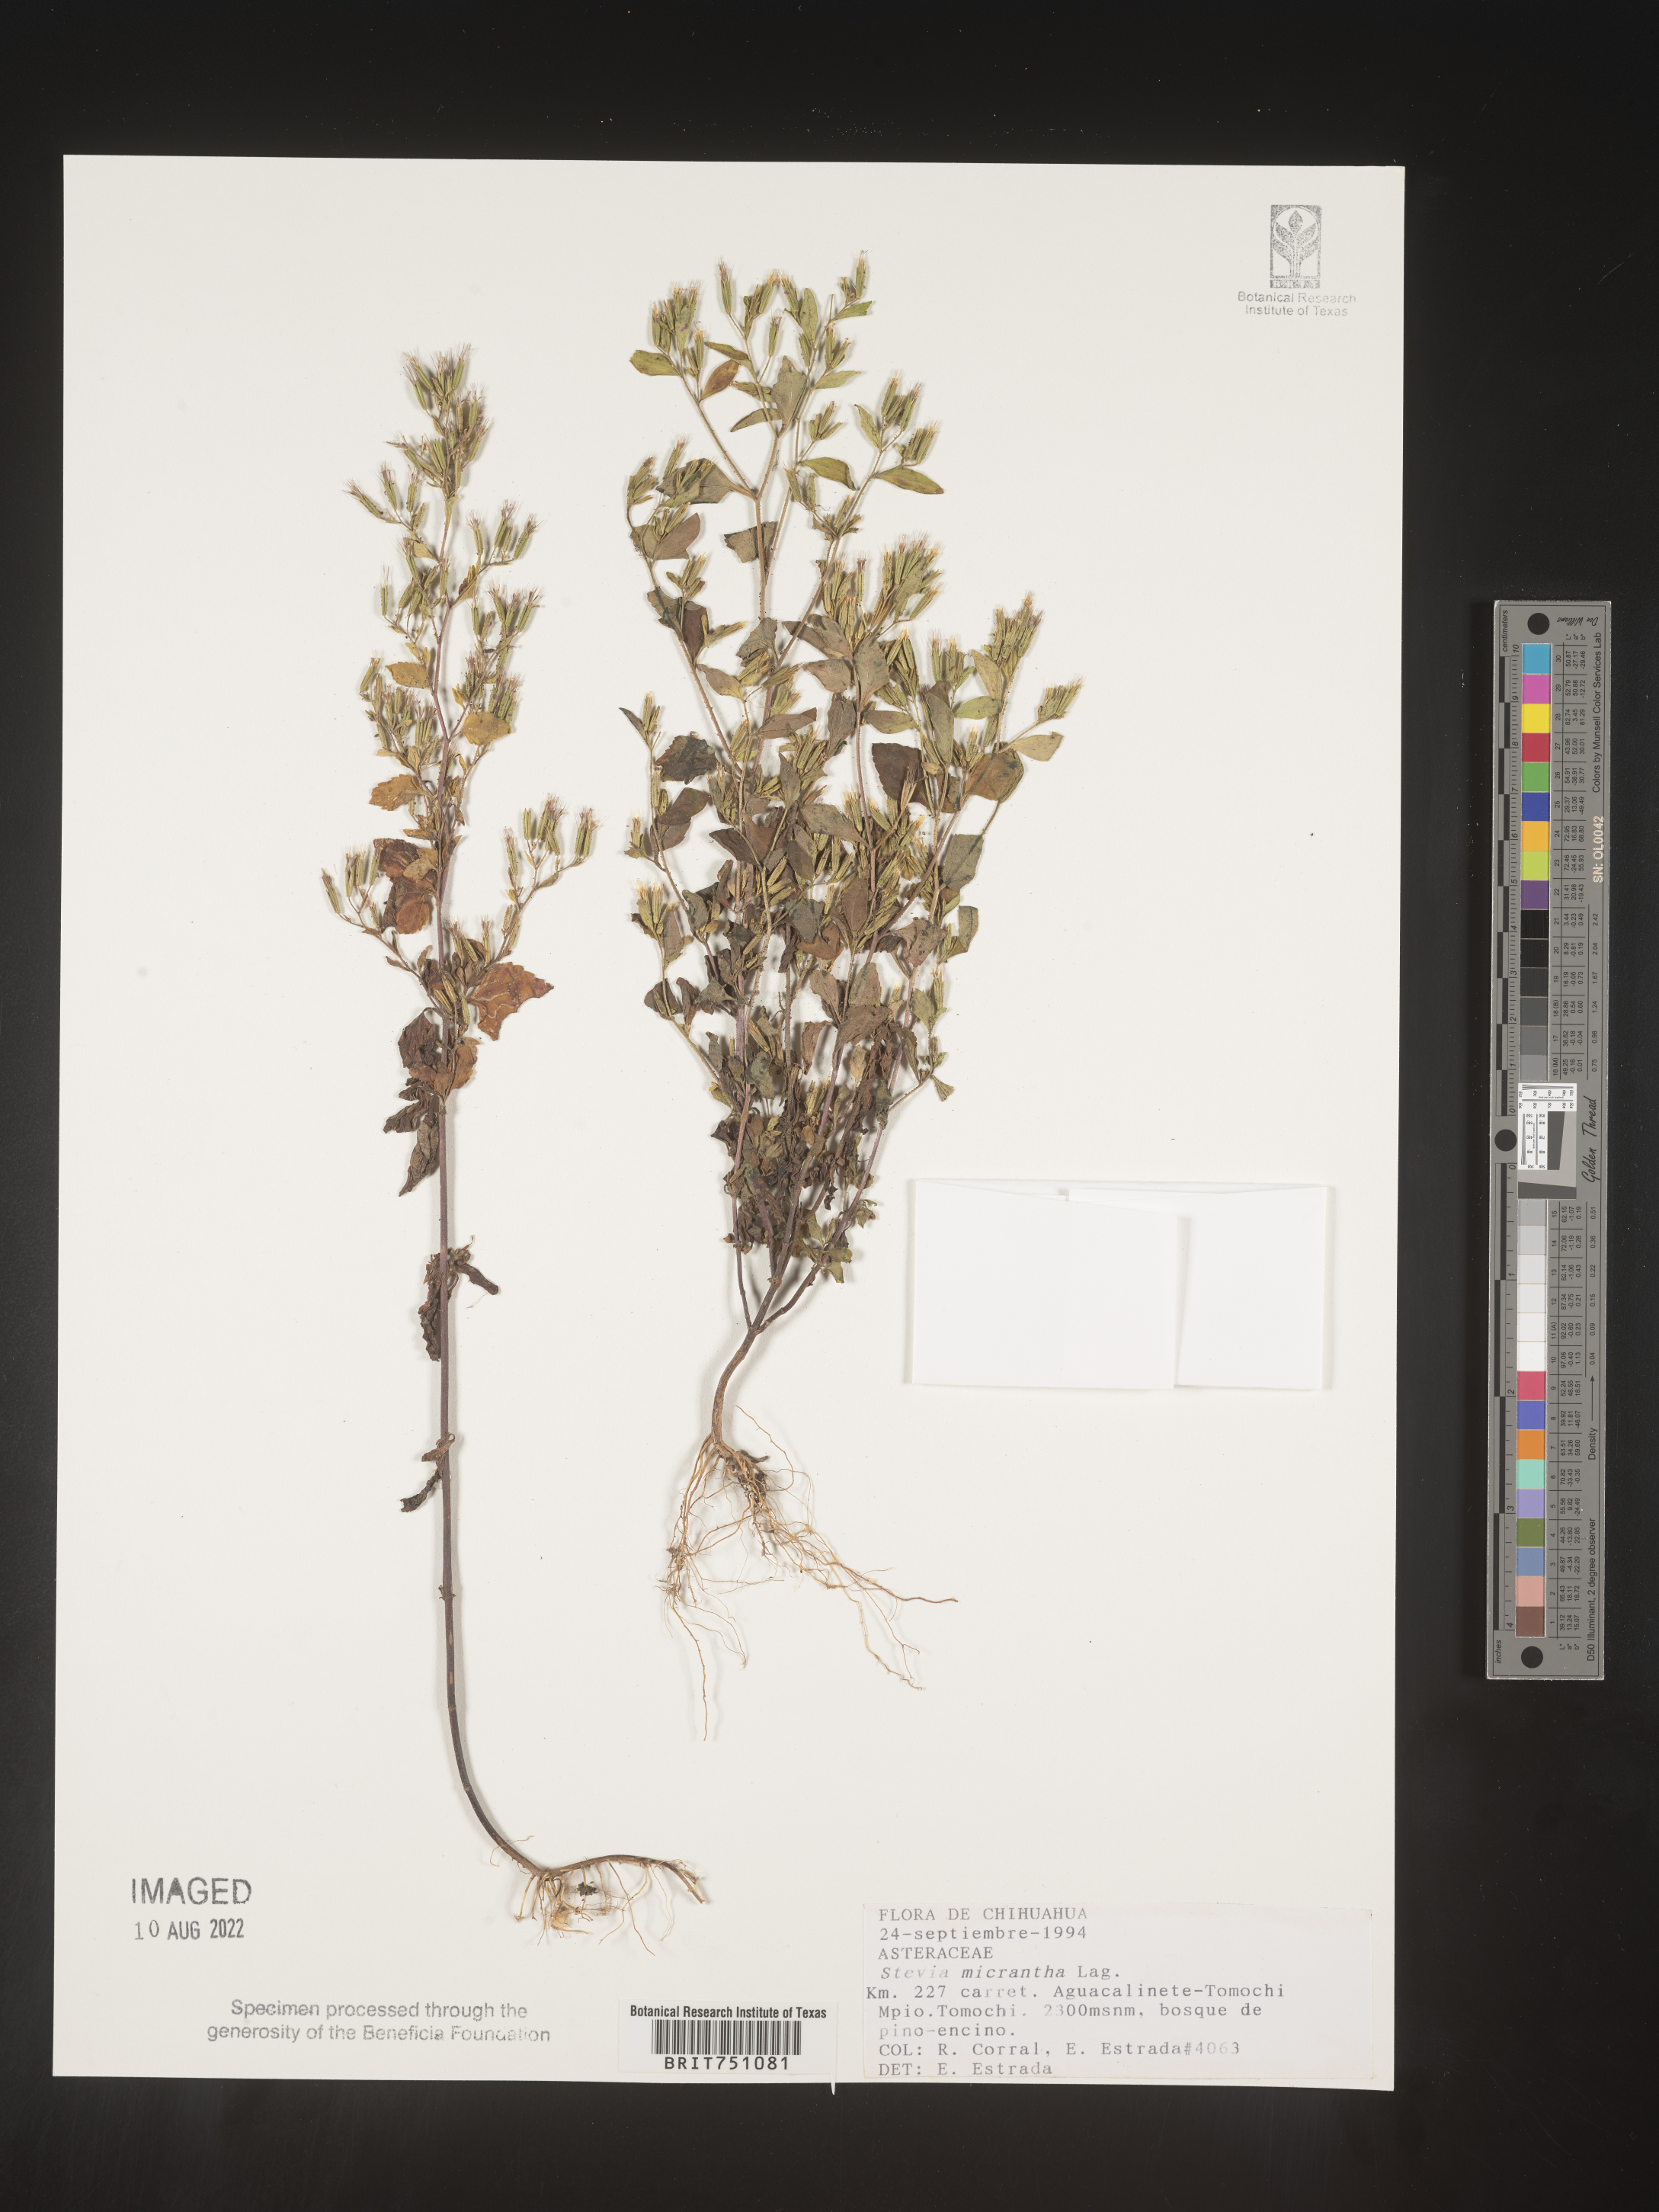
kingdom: Plantae
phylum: Tracheophyta
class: Magnoliopsida
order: Asterales
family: Asteraceae
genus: Stevia
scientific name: Stevia
